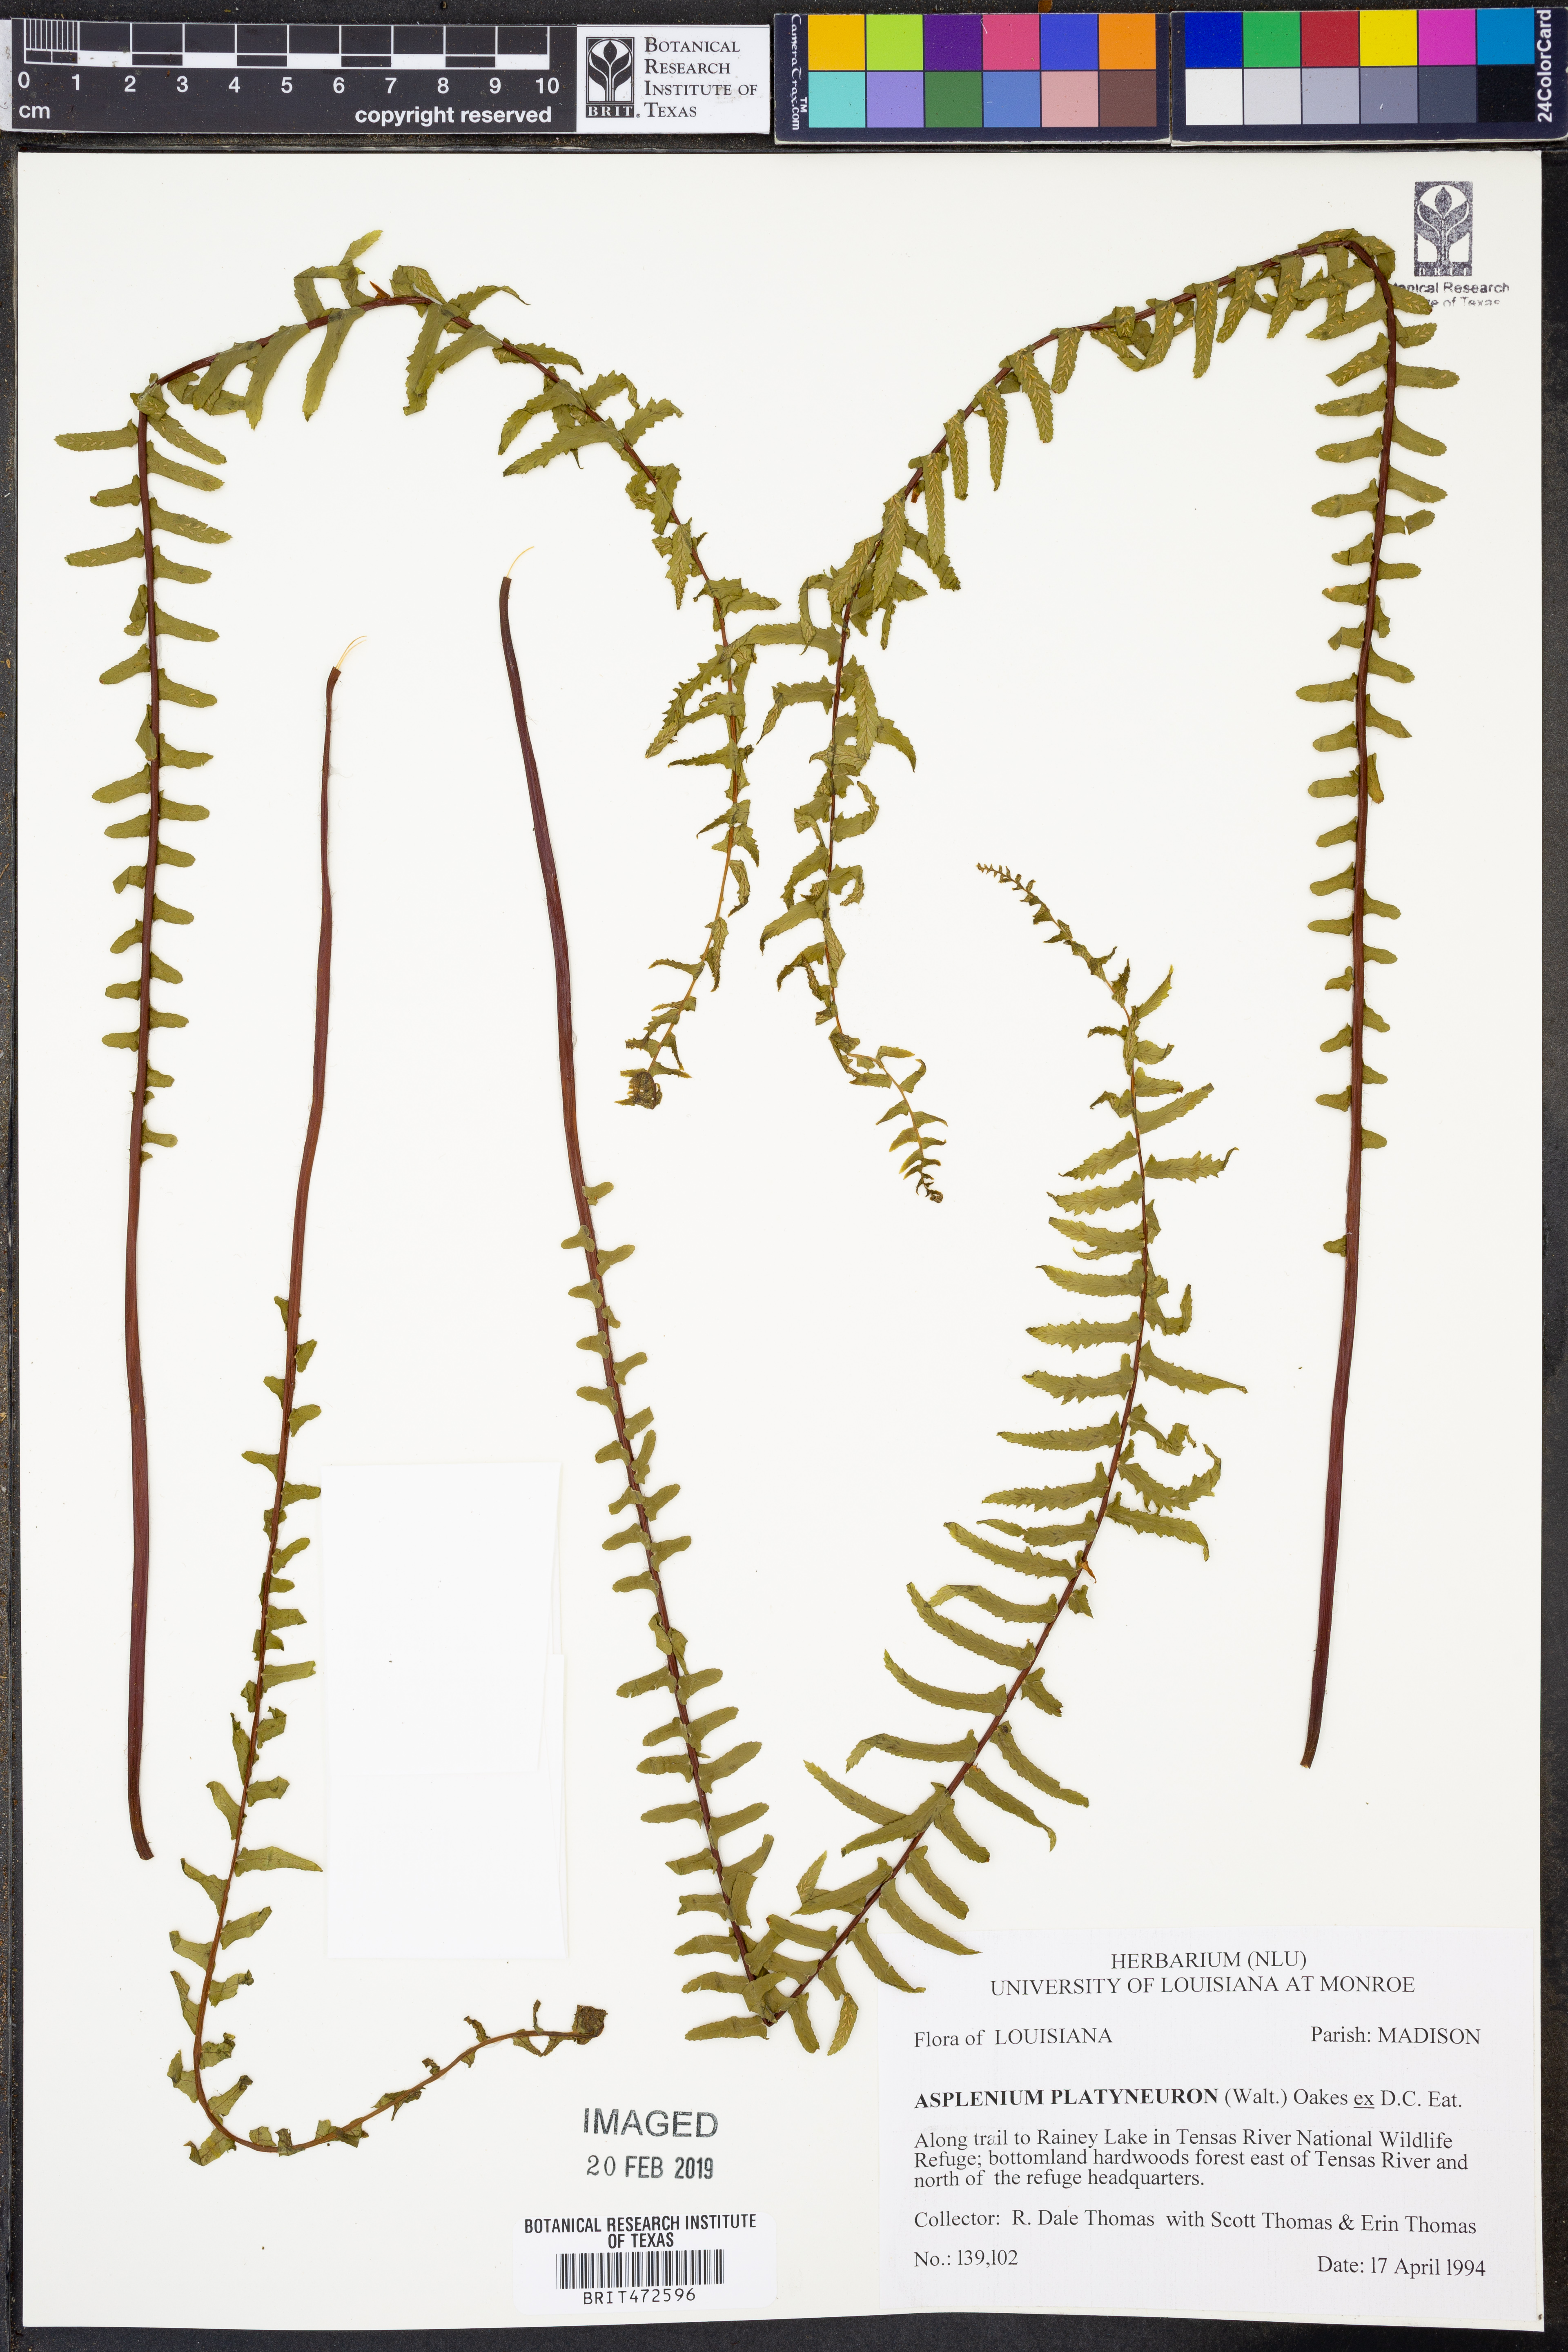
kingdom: Plantae
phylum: Tracheophyta
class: Polypodiopsida
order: Polypodiales
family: Aspleniaceae
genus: Asplenium
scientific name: Asplenium platyneuron
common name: Ebony spleenwort
